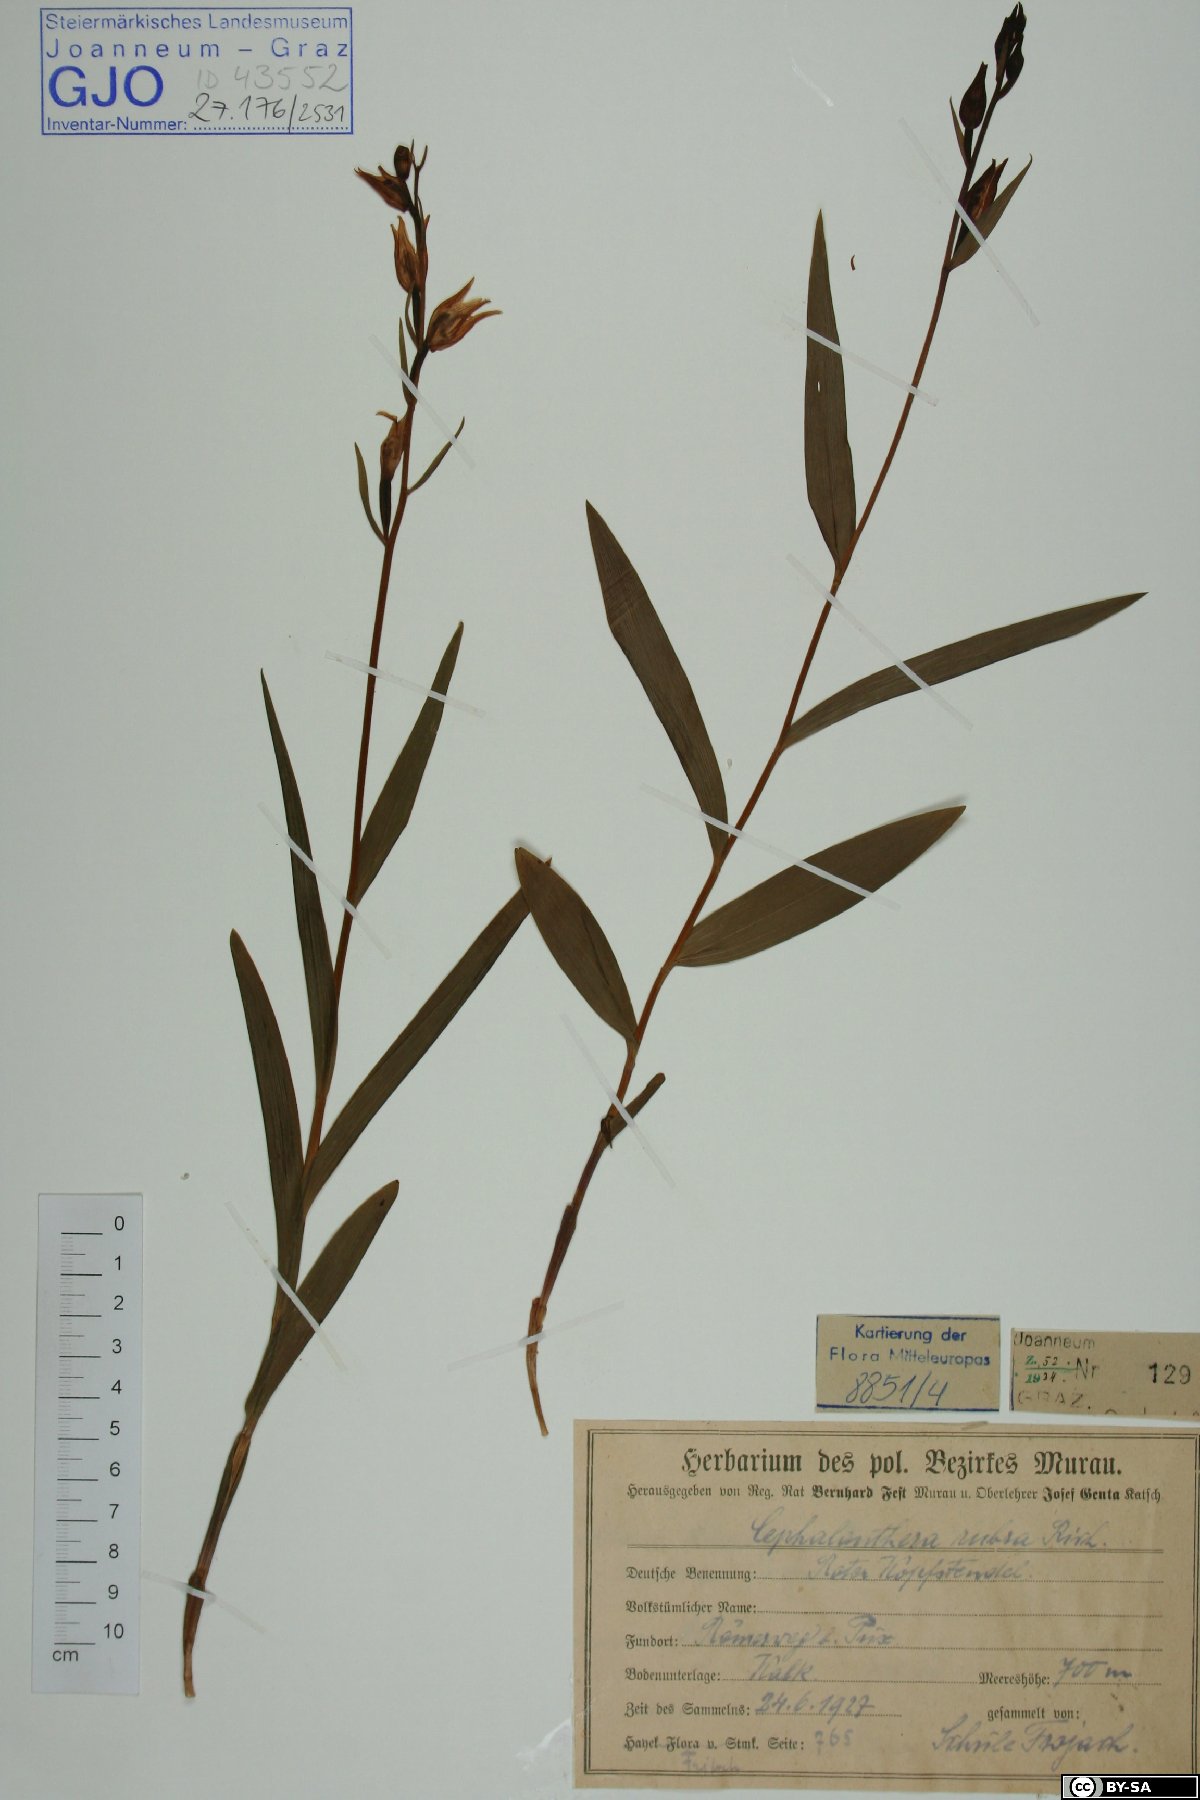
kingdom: Plantae
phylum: Tracheophyta
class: Liliopsida
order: Asparagales
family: Orchidaceae
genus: Cephalanthera
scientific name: Cephalanthera rubra
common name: Red helleborine
